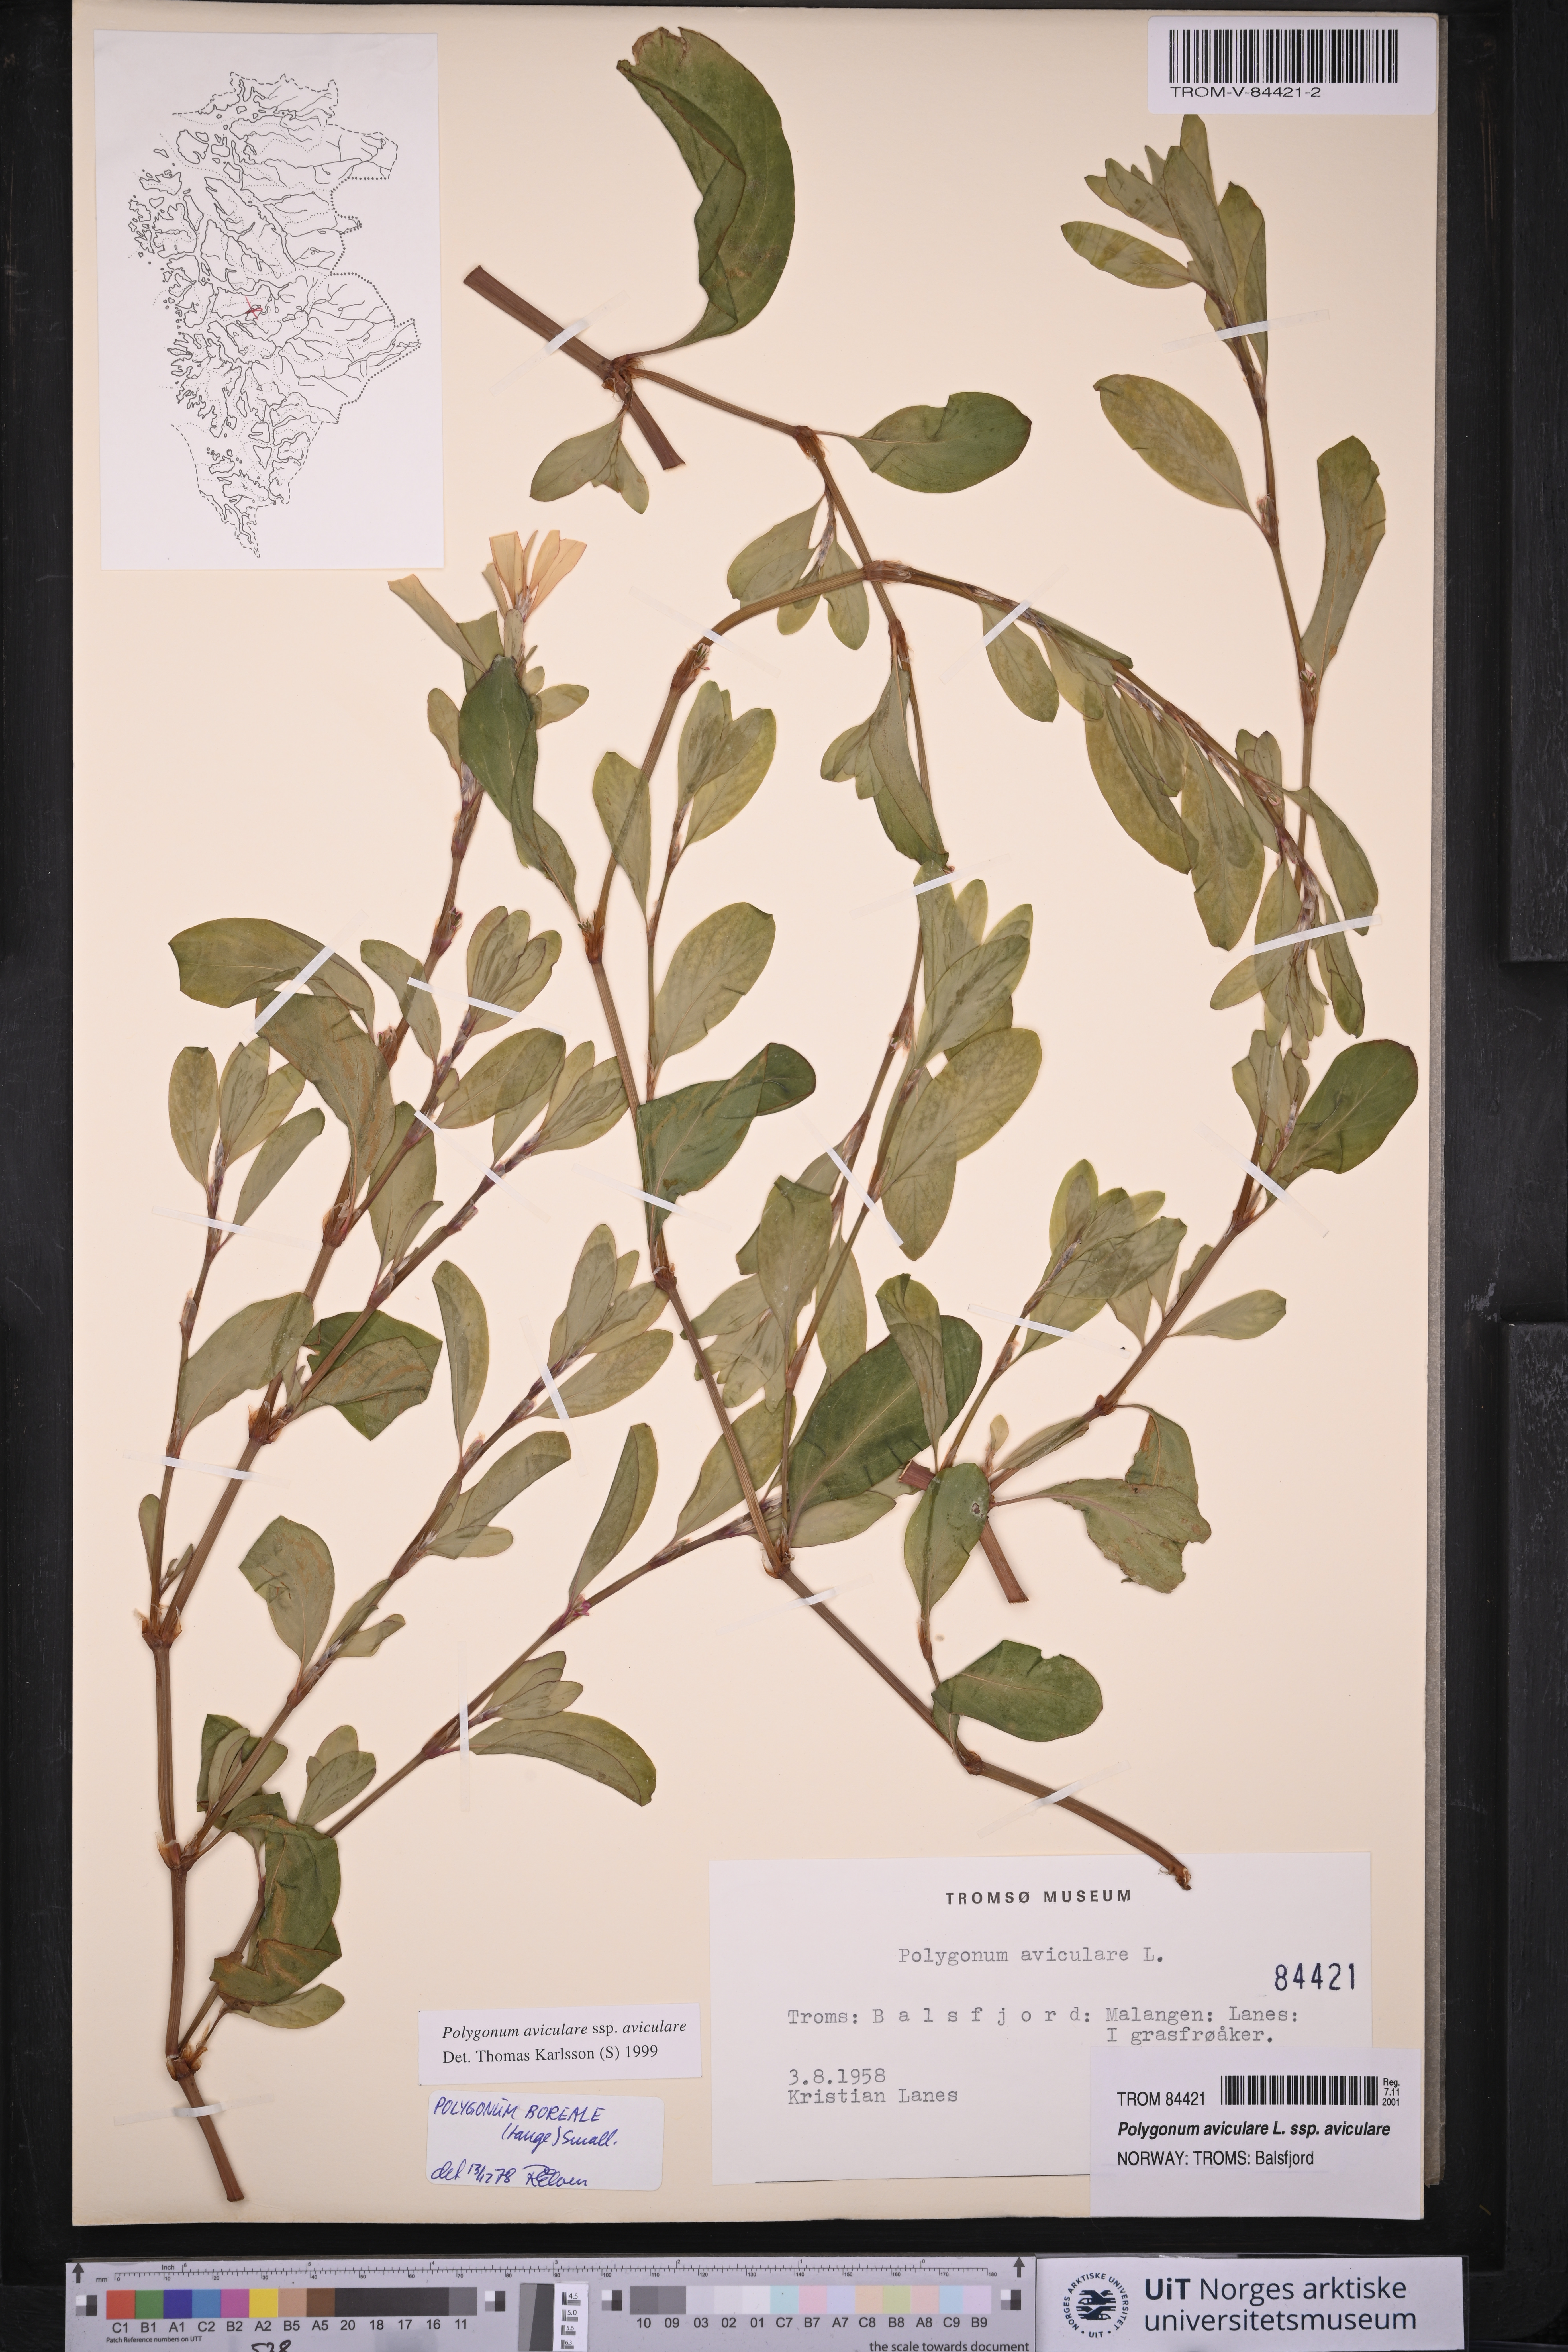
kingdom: Plantae
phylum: Tracheophyta
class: Magnoliopsida
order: Caryophyllales
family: Polygonaceae
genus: Polygonum
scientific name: Polygonum aviculare
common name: Prostrate knotweed
